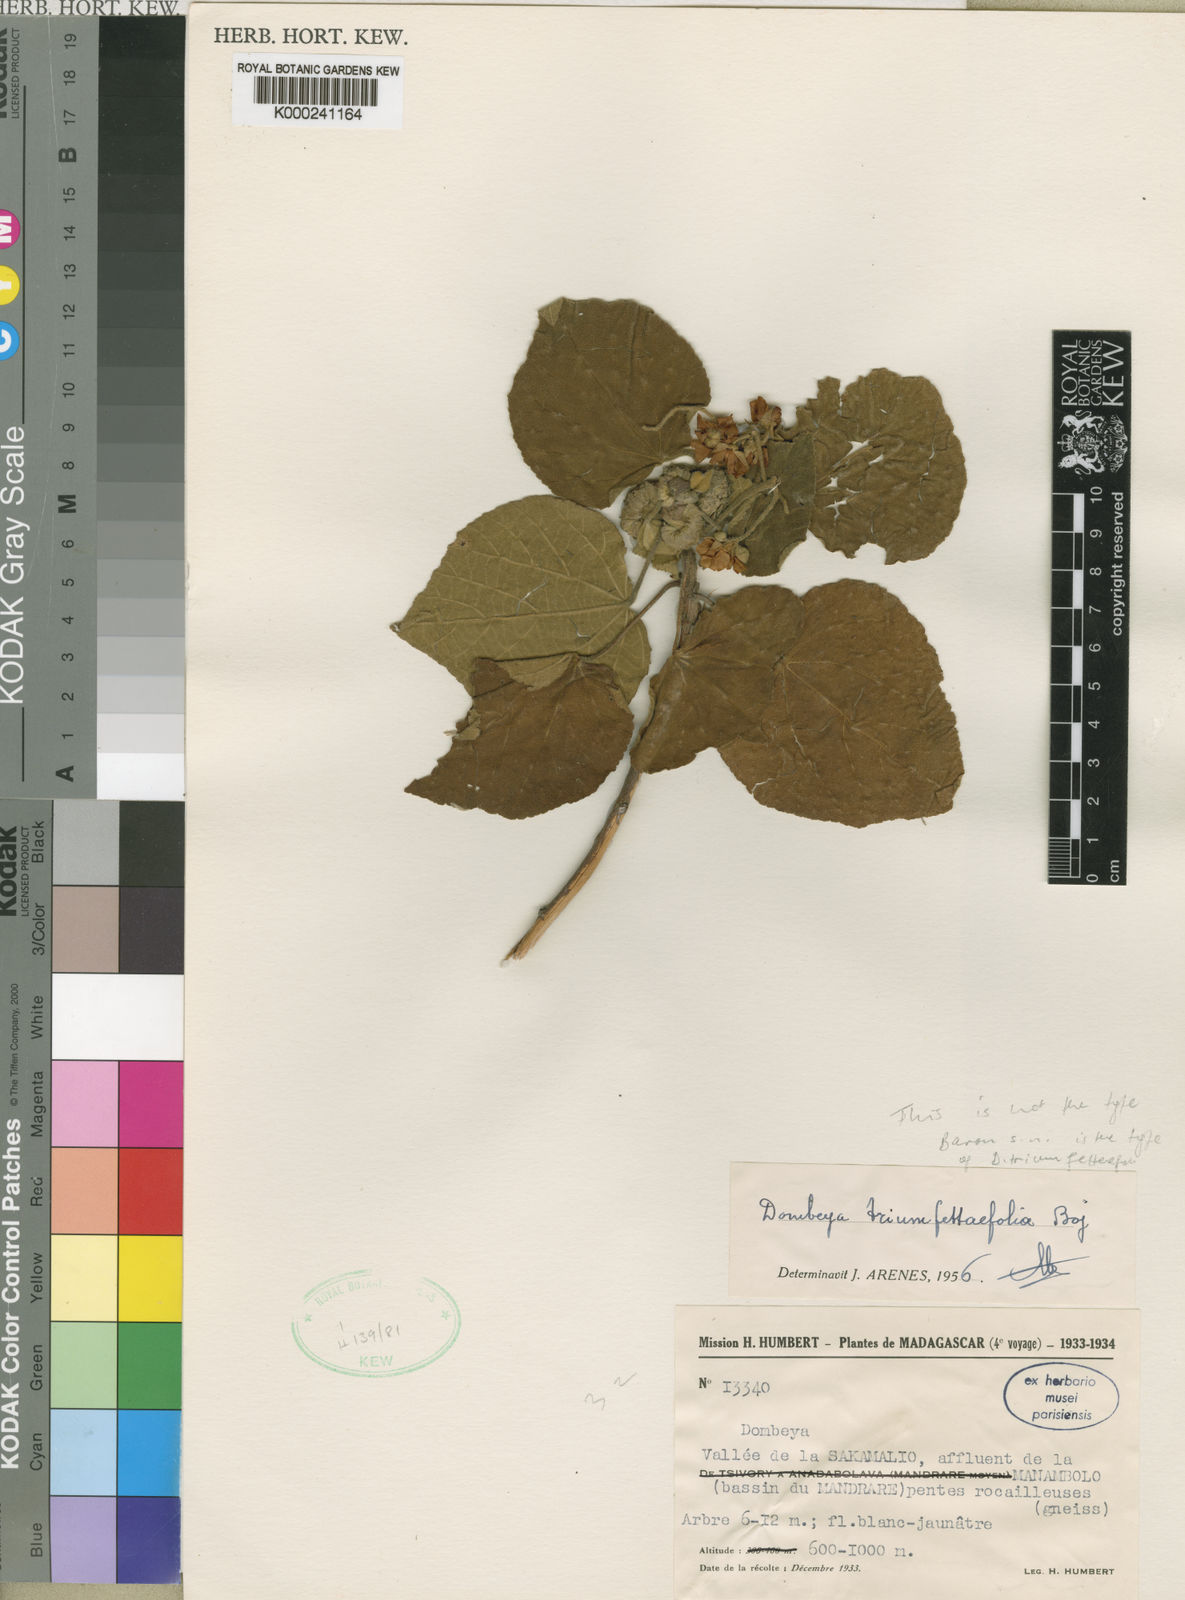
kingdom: Plantae
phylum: Tracheophyta
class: Magnoliopsida
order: Malvales
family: Malvaceae
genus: Dombeya
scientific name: Dombeya triumfettifolia
